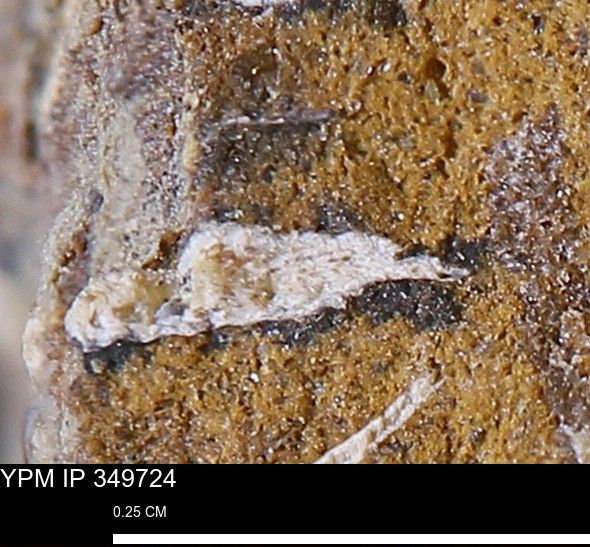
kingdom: Animalia
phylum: Mollusca
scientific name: Mollusca
